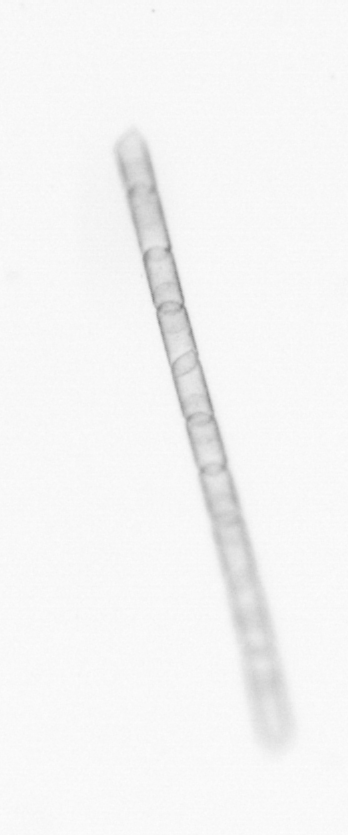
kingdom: Chromista
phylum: Ochrophyta
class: Bacillariophyceae
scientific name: Bacillariophyceae
